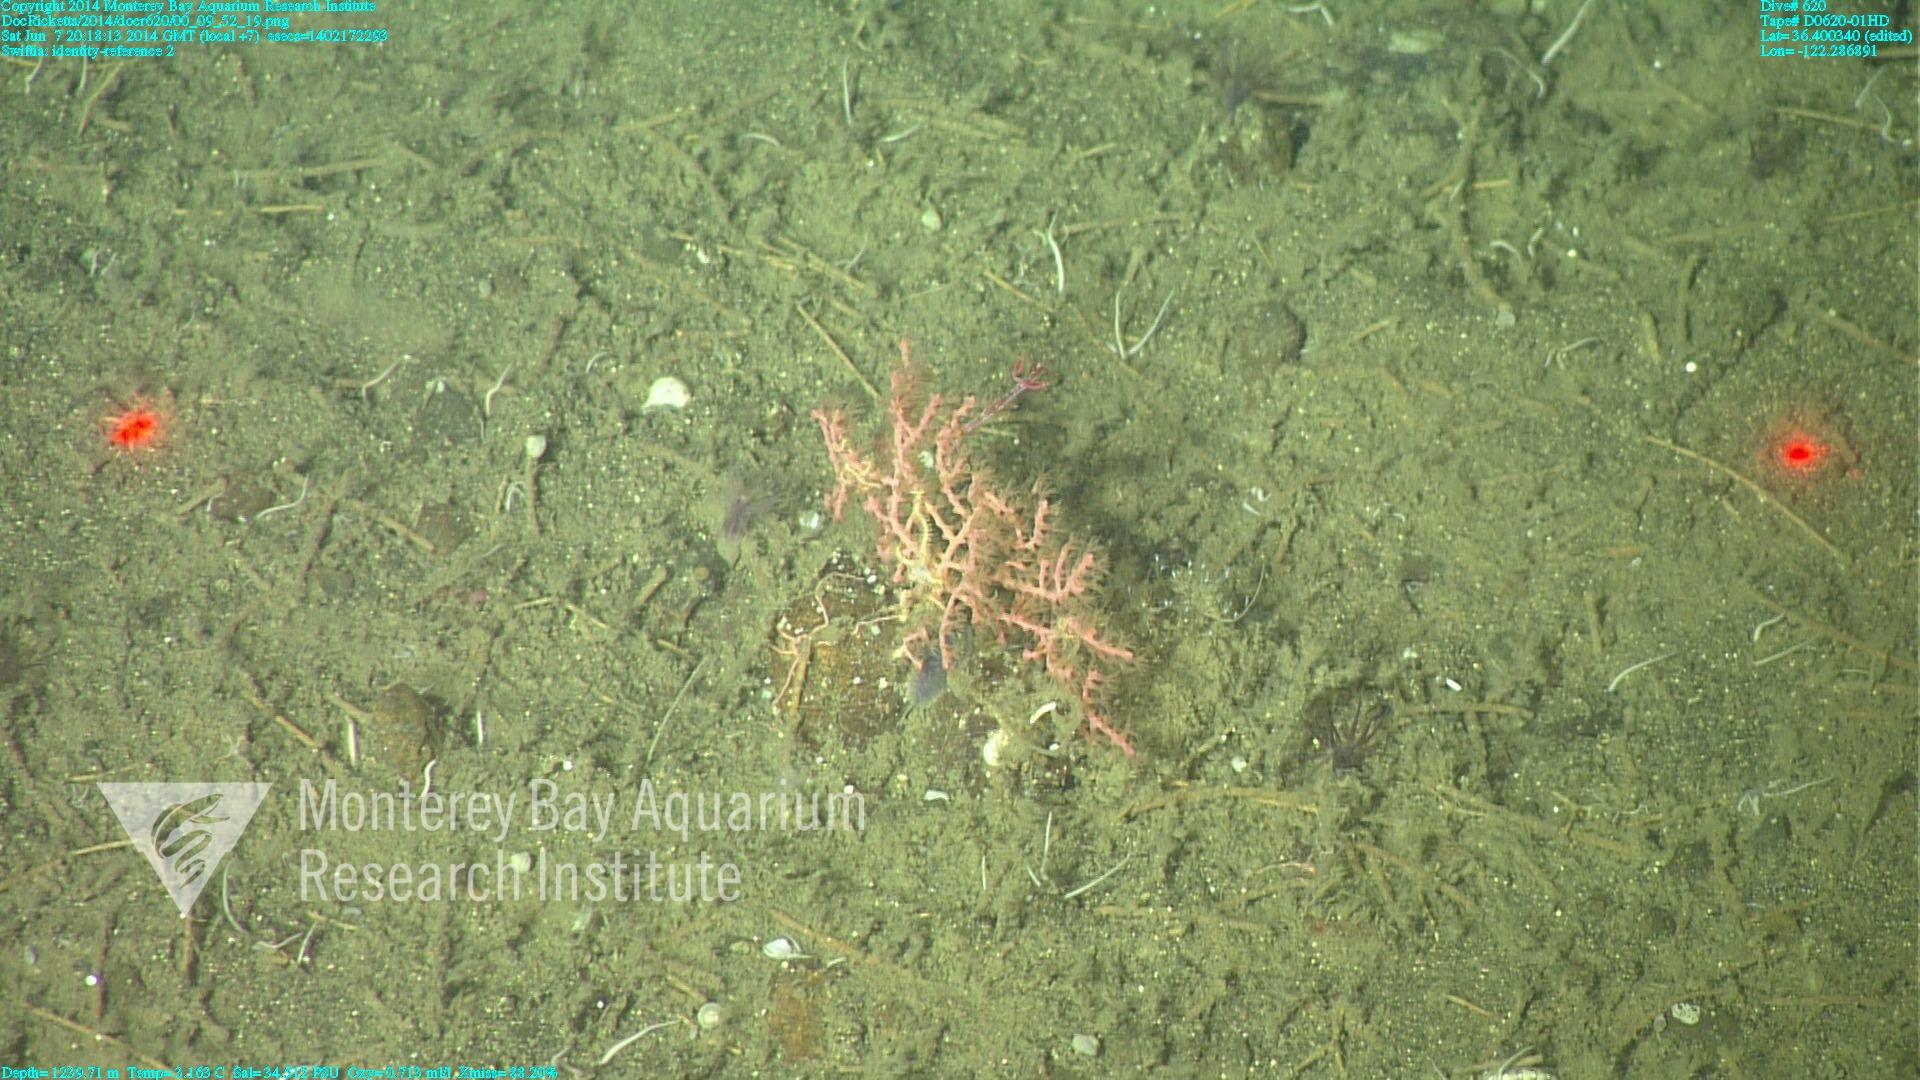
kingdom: Animalia
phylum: Cnidaria
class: Anthozoa
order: Malacalcyonacea
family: Gorgoniidae
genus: Callistephanus
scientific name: Callistephanus kofoidi
